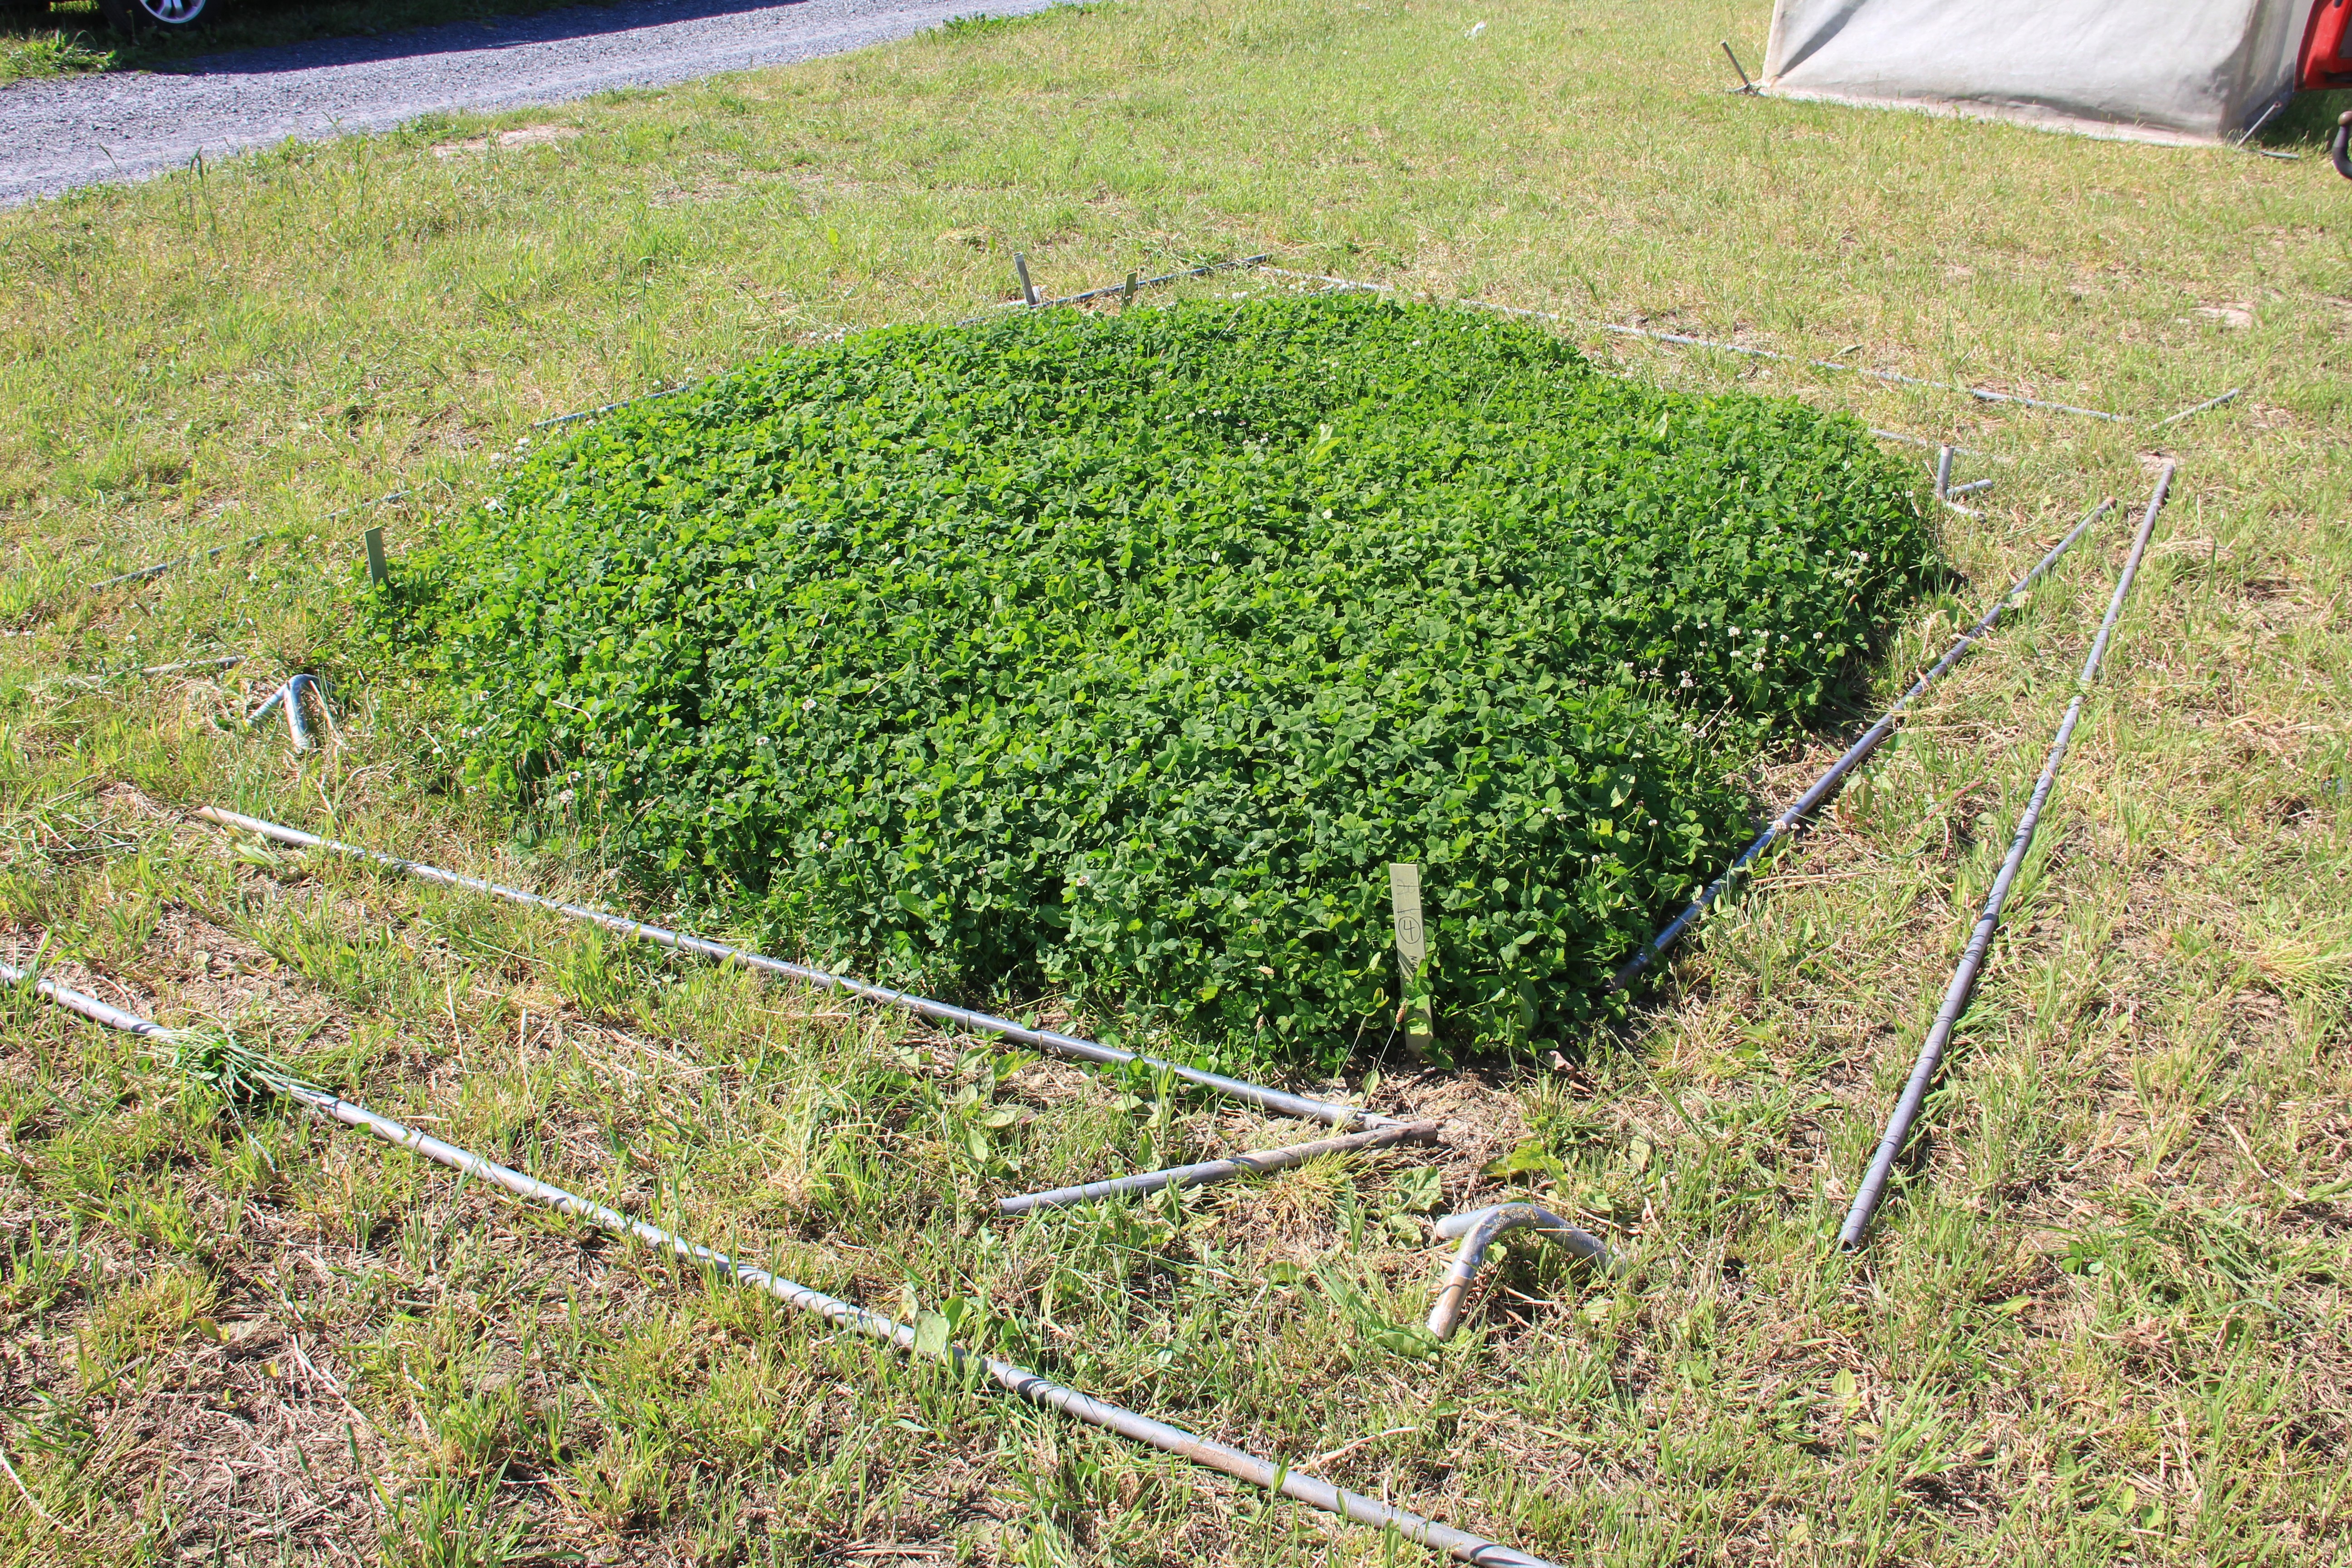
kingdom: Plantae
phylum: Tracheophyta
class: Magnoliopsida
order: Fabales
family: Fabaceae
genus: Trifolium
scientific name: Trifolium repens
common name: White clover
